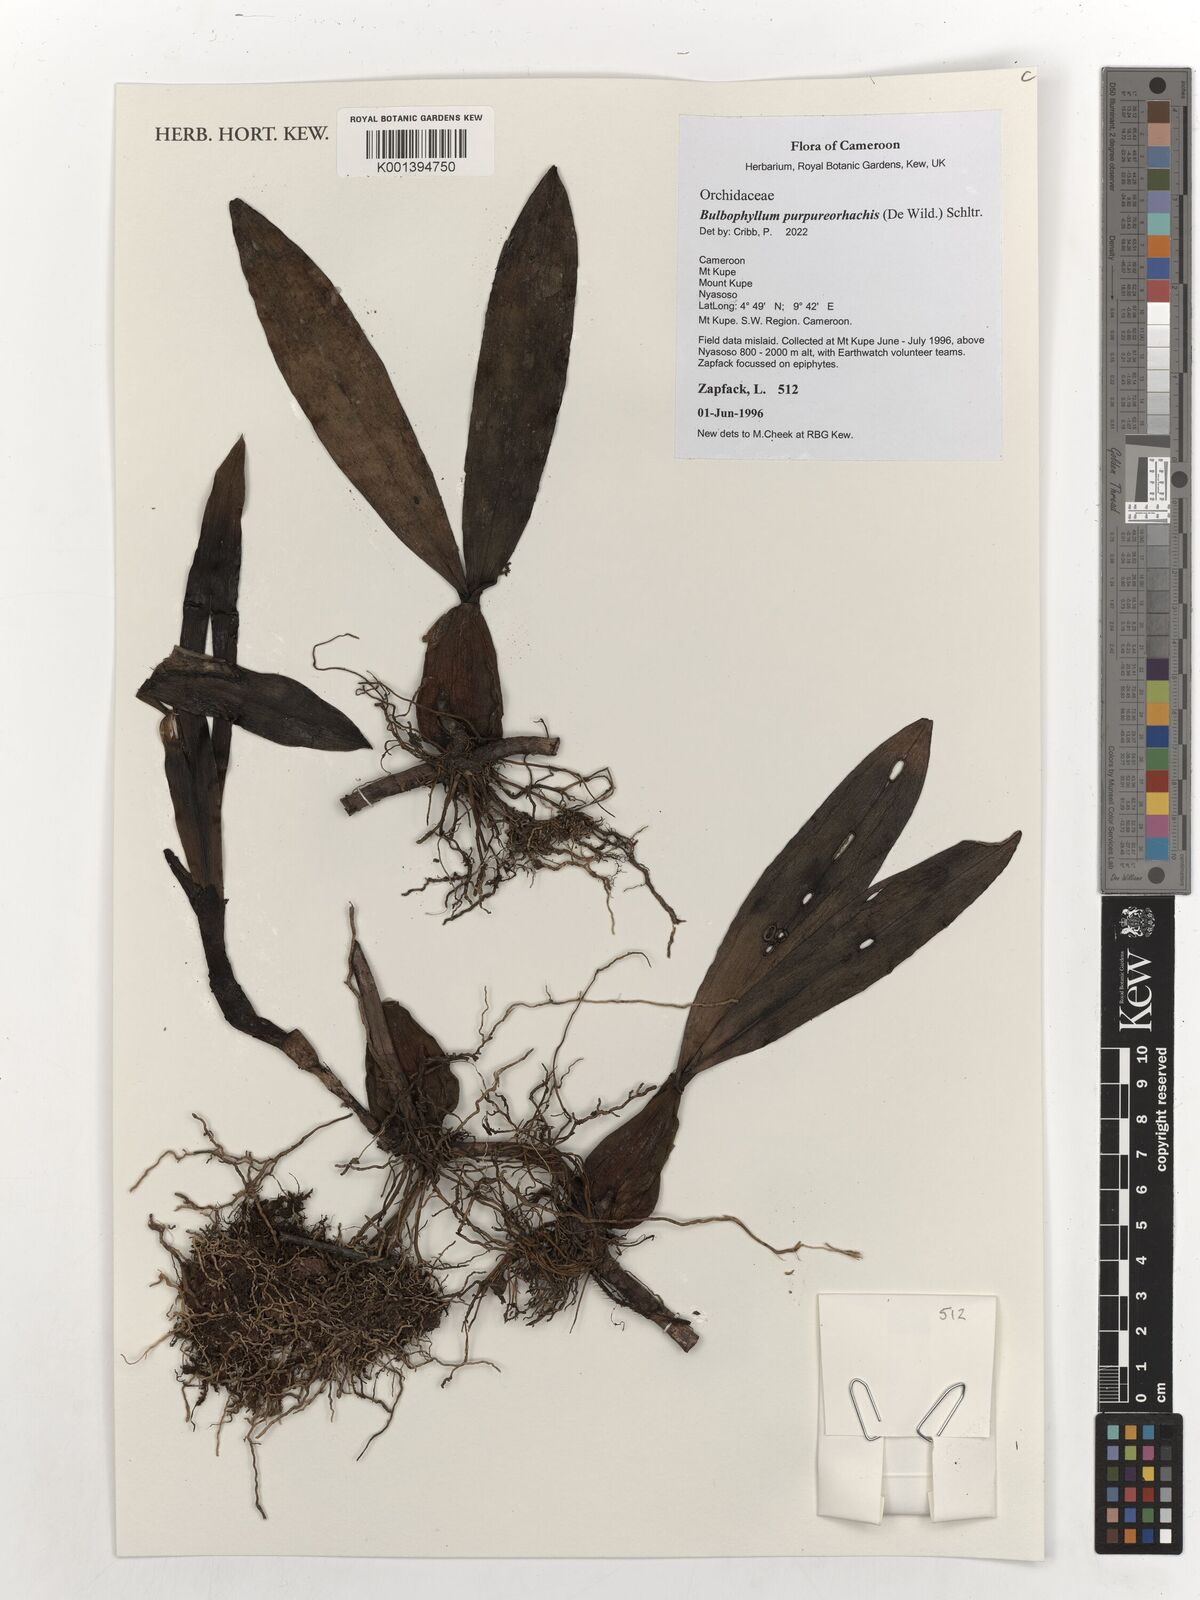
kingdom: Plantae
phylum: Tracheophyta
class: Liliopsida
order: Asparagales
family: Orchidaceae
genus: Bulbophyllum
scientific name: Bulbophyllum purpureorhachis
